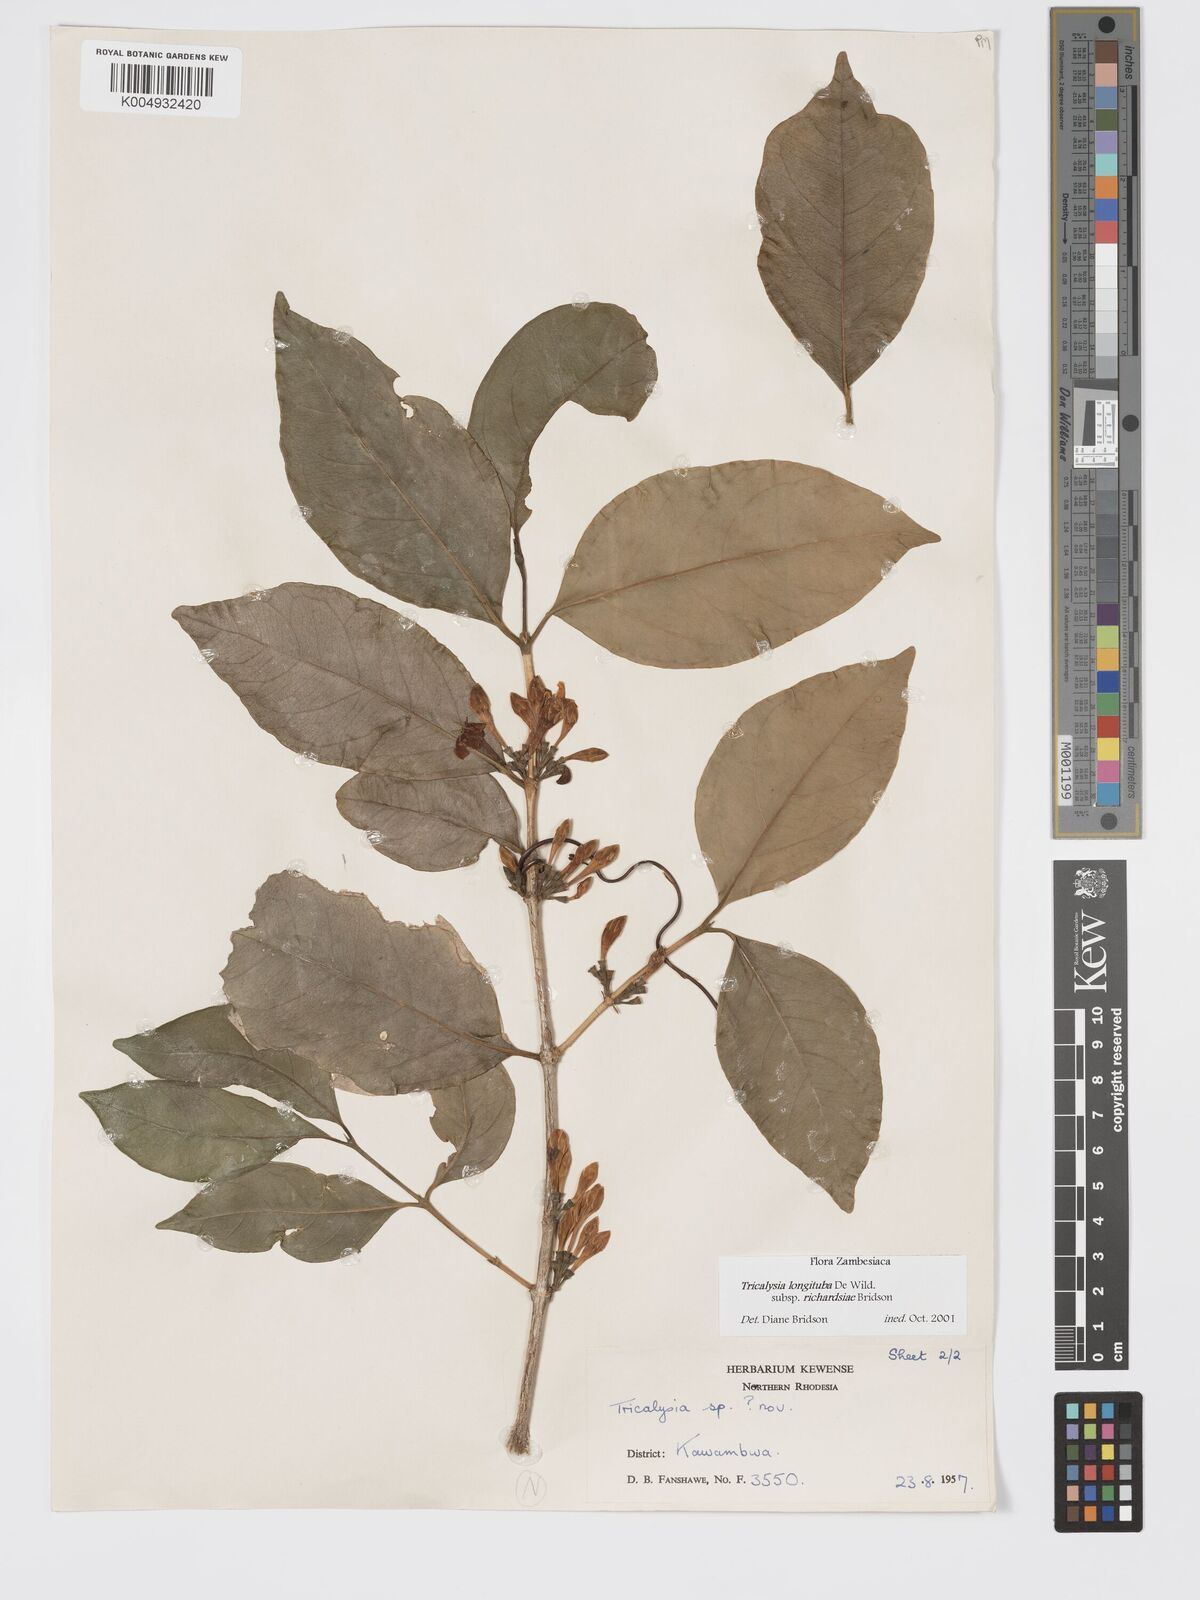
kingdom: Plantae
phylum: Tracheophyta
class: Magnoliopsida
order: Gentianales
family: Rubiaceae
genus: Tricalysia
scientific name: Tricalysia longituba
